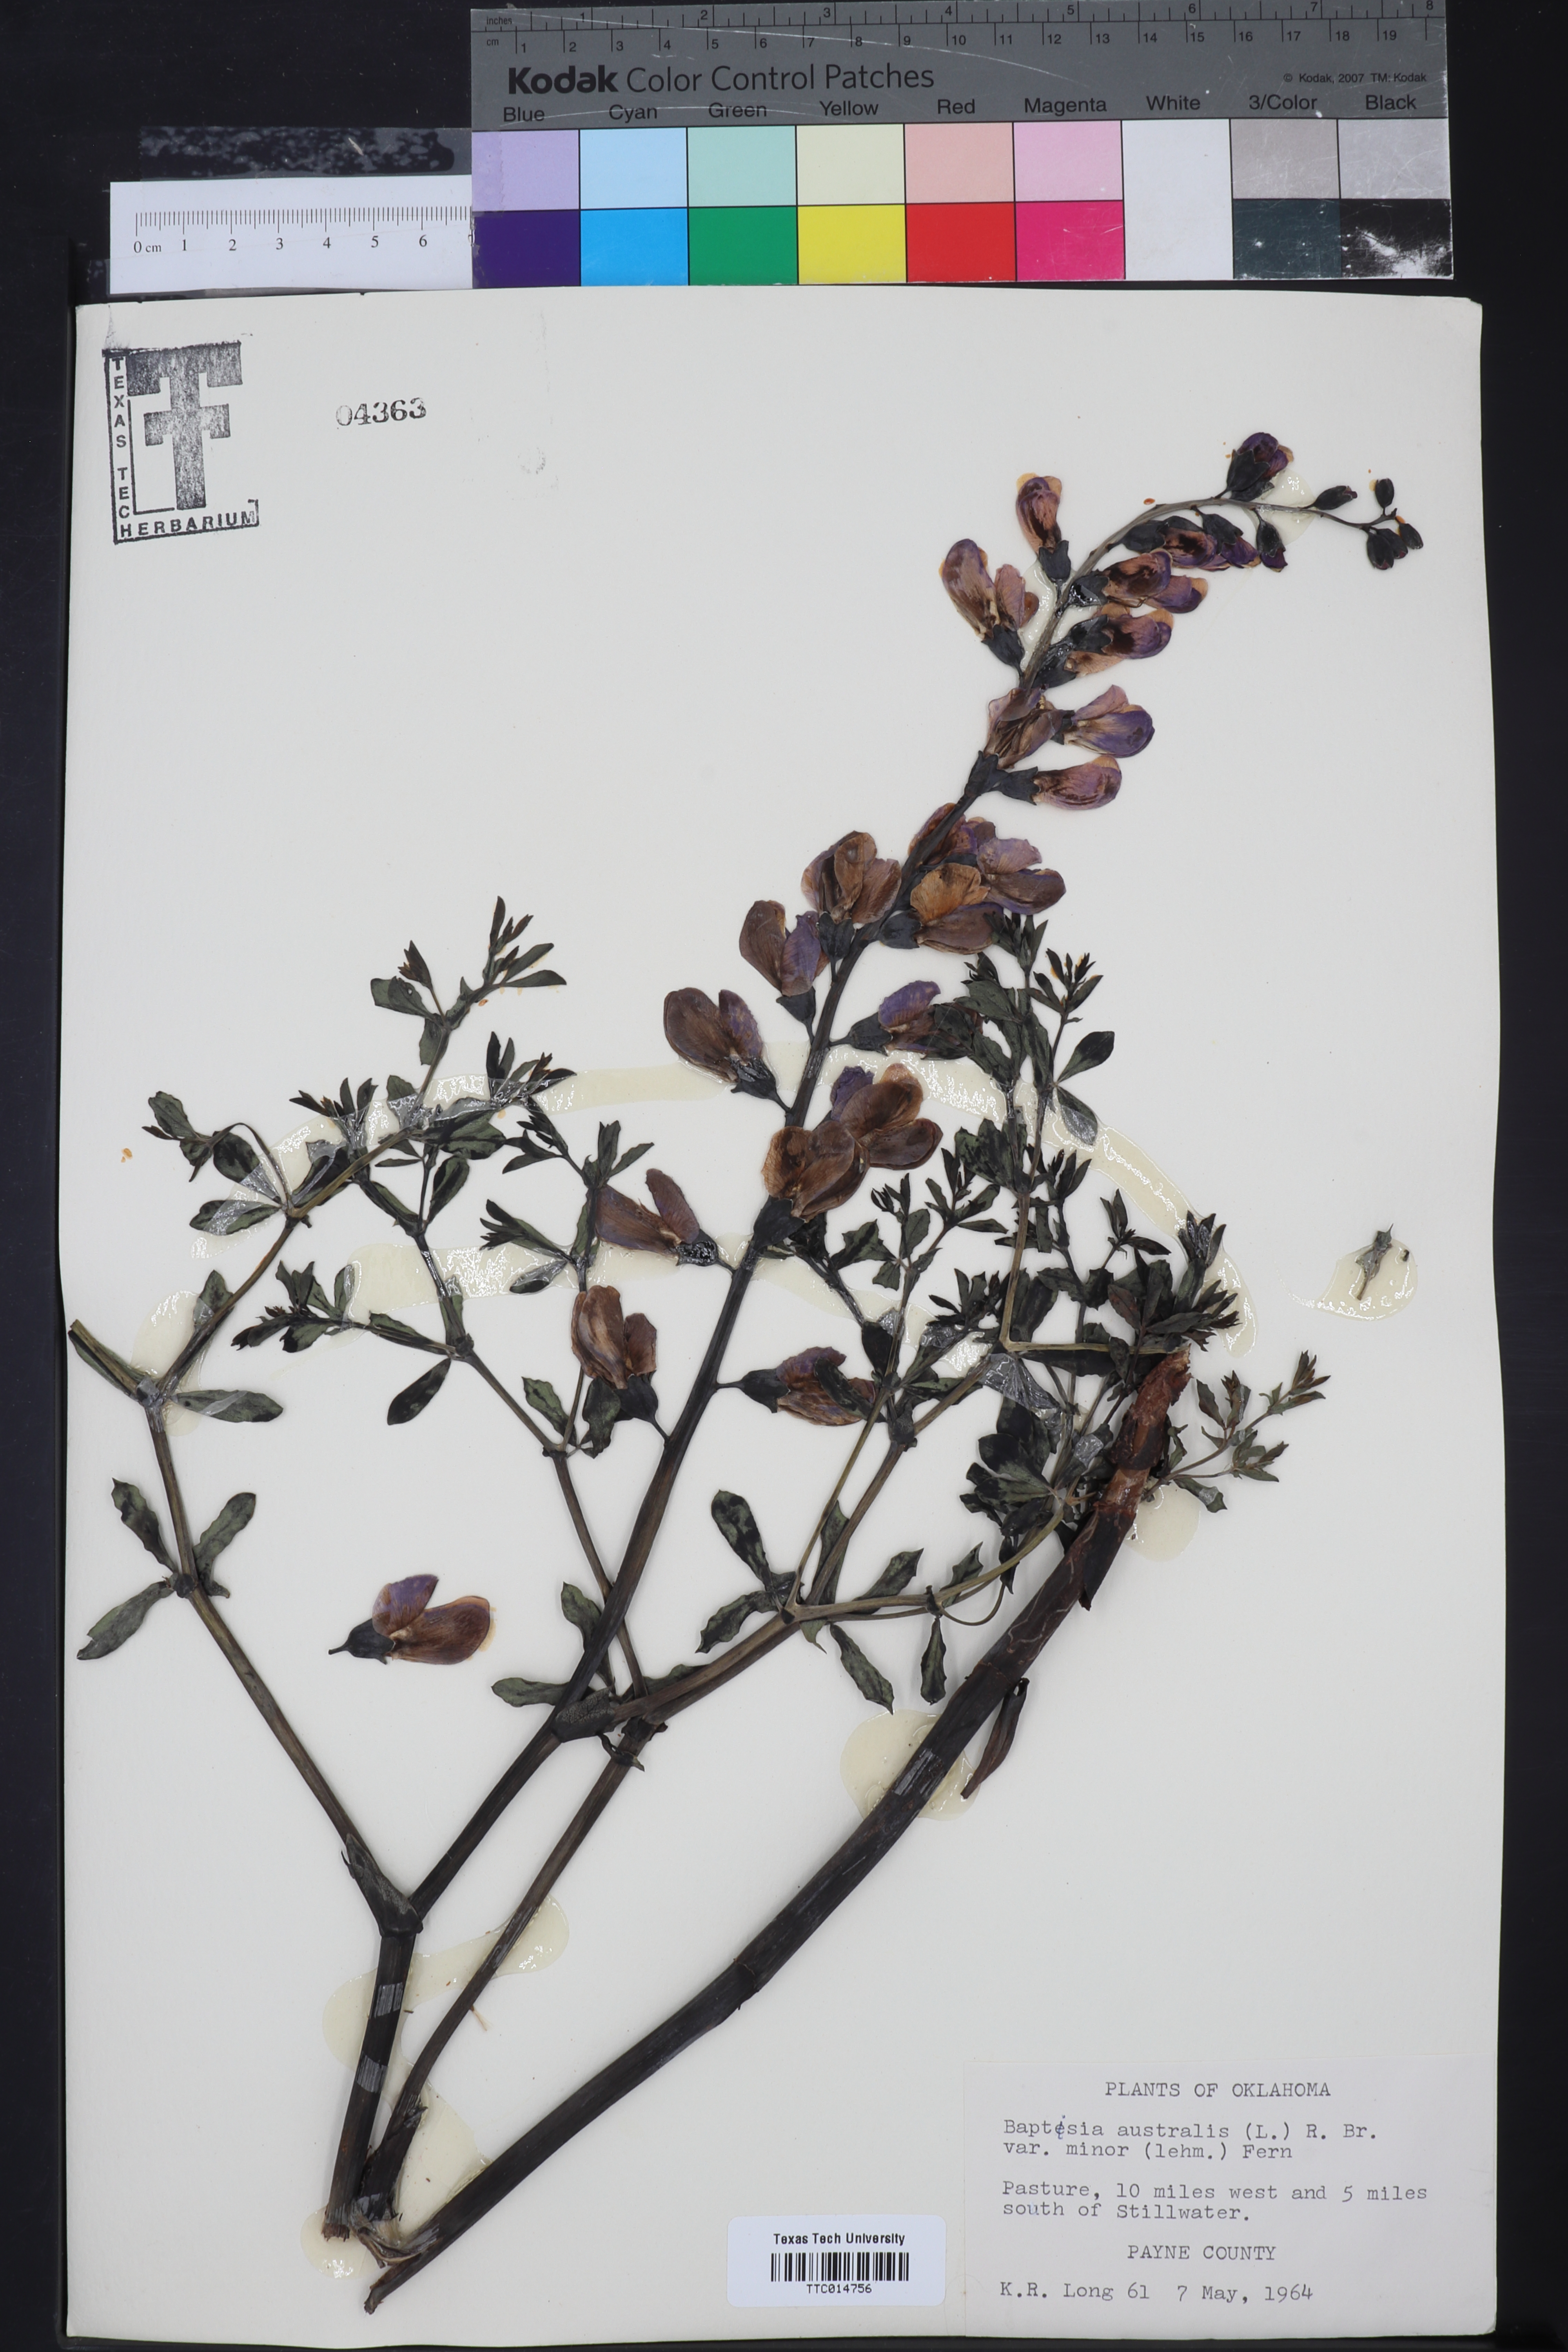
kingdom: Plantae
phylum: Tracheophyta
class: Magnoliopsida
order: Fabales
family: Fabaceae
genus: Baptisia
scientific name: Baptisia australis
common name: Blue false indigo
